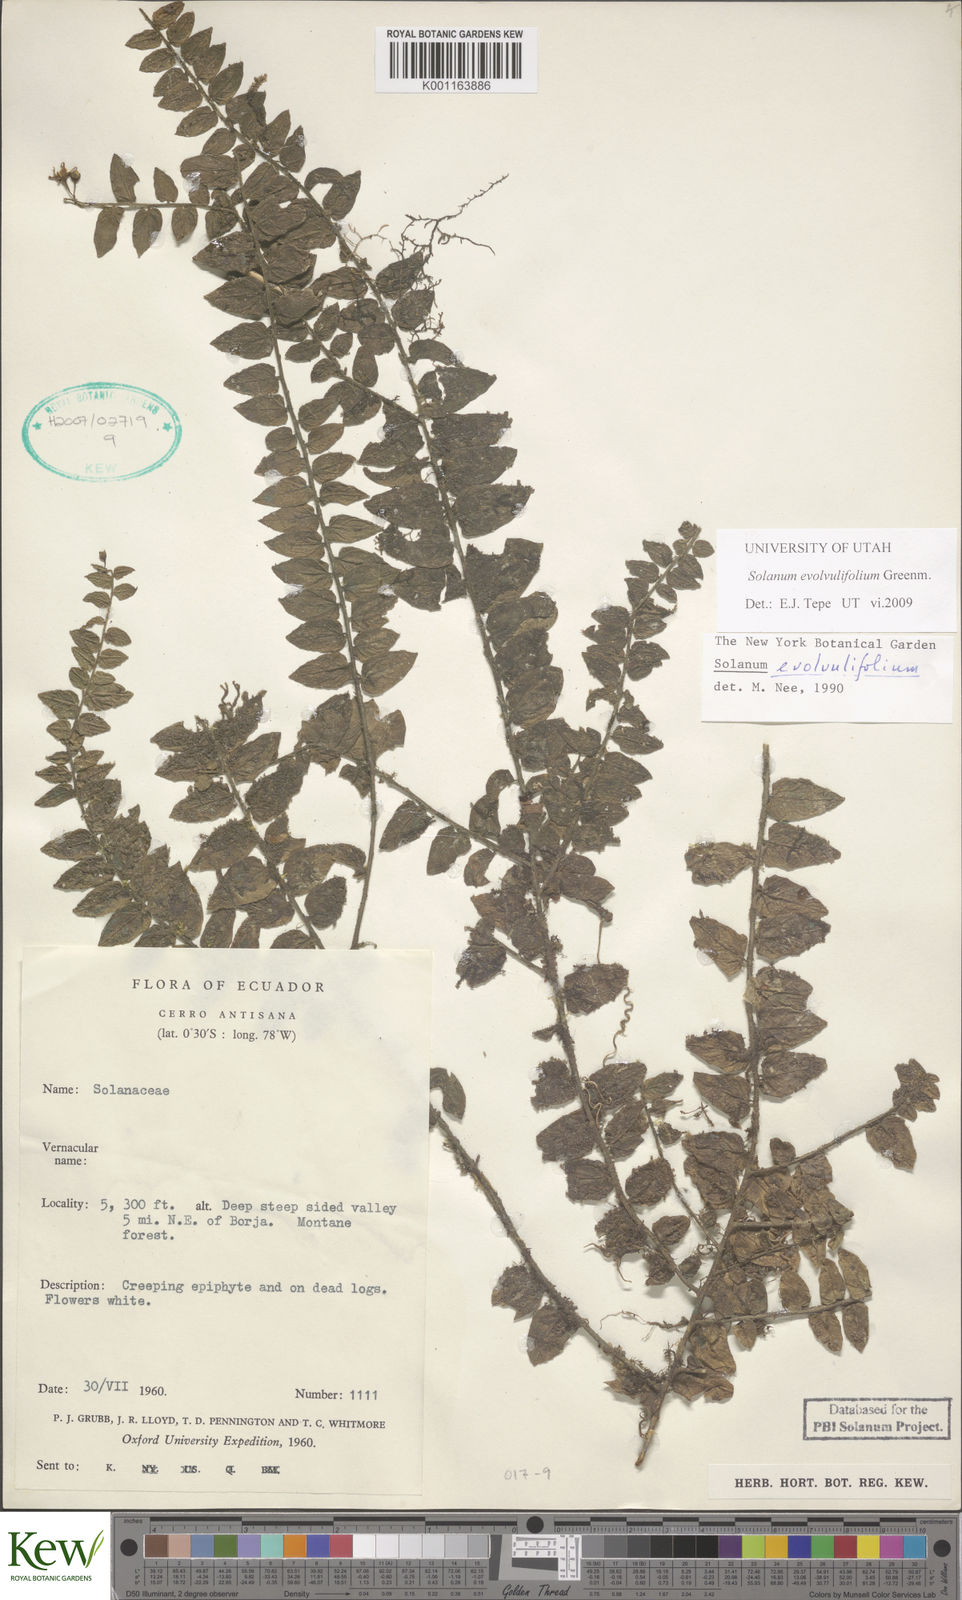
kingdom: Plantae
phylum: Tracheophyta
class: Magnoliopsida
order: Solanales
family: Solanaceae
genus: Solanum
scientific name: Solanum evolvulifolium
